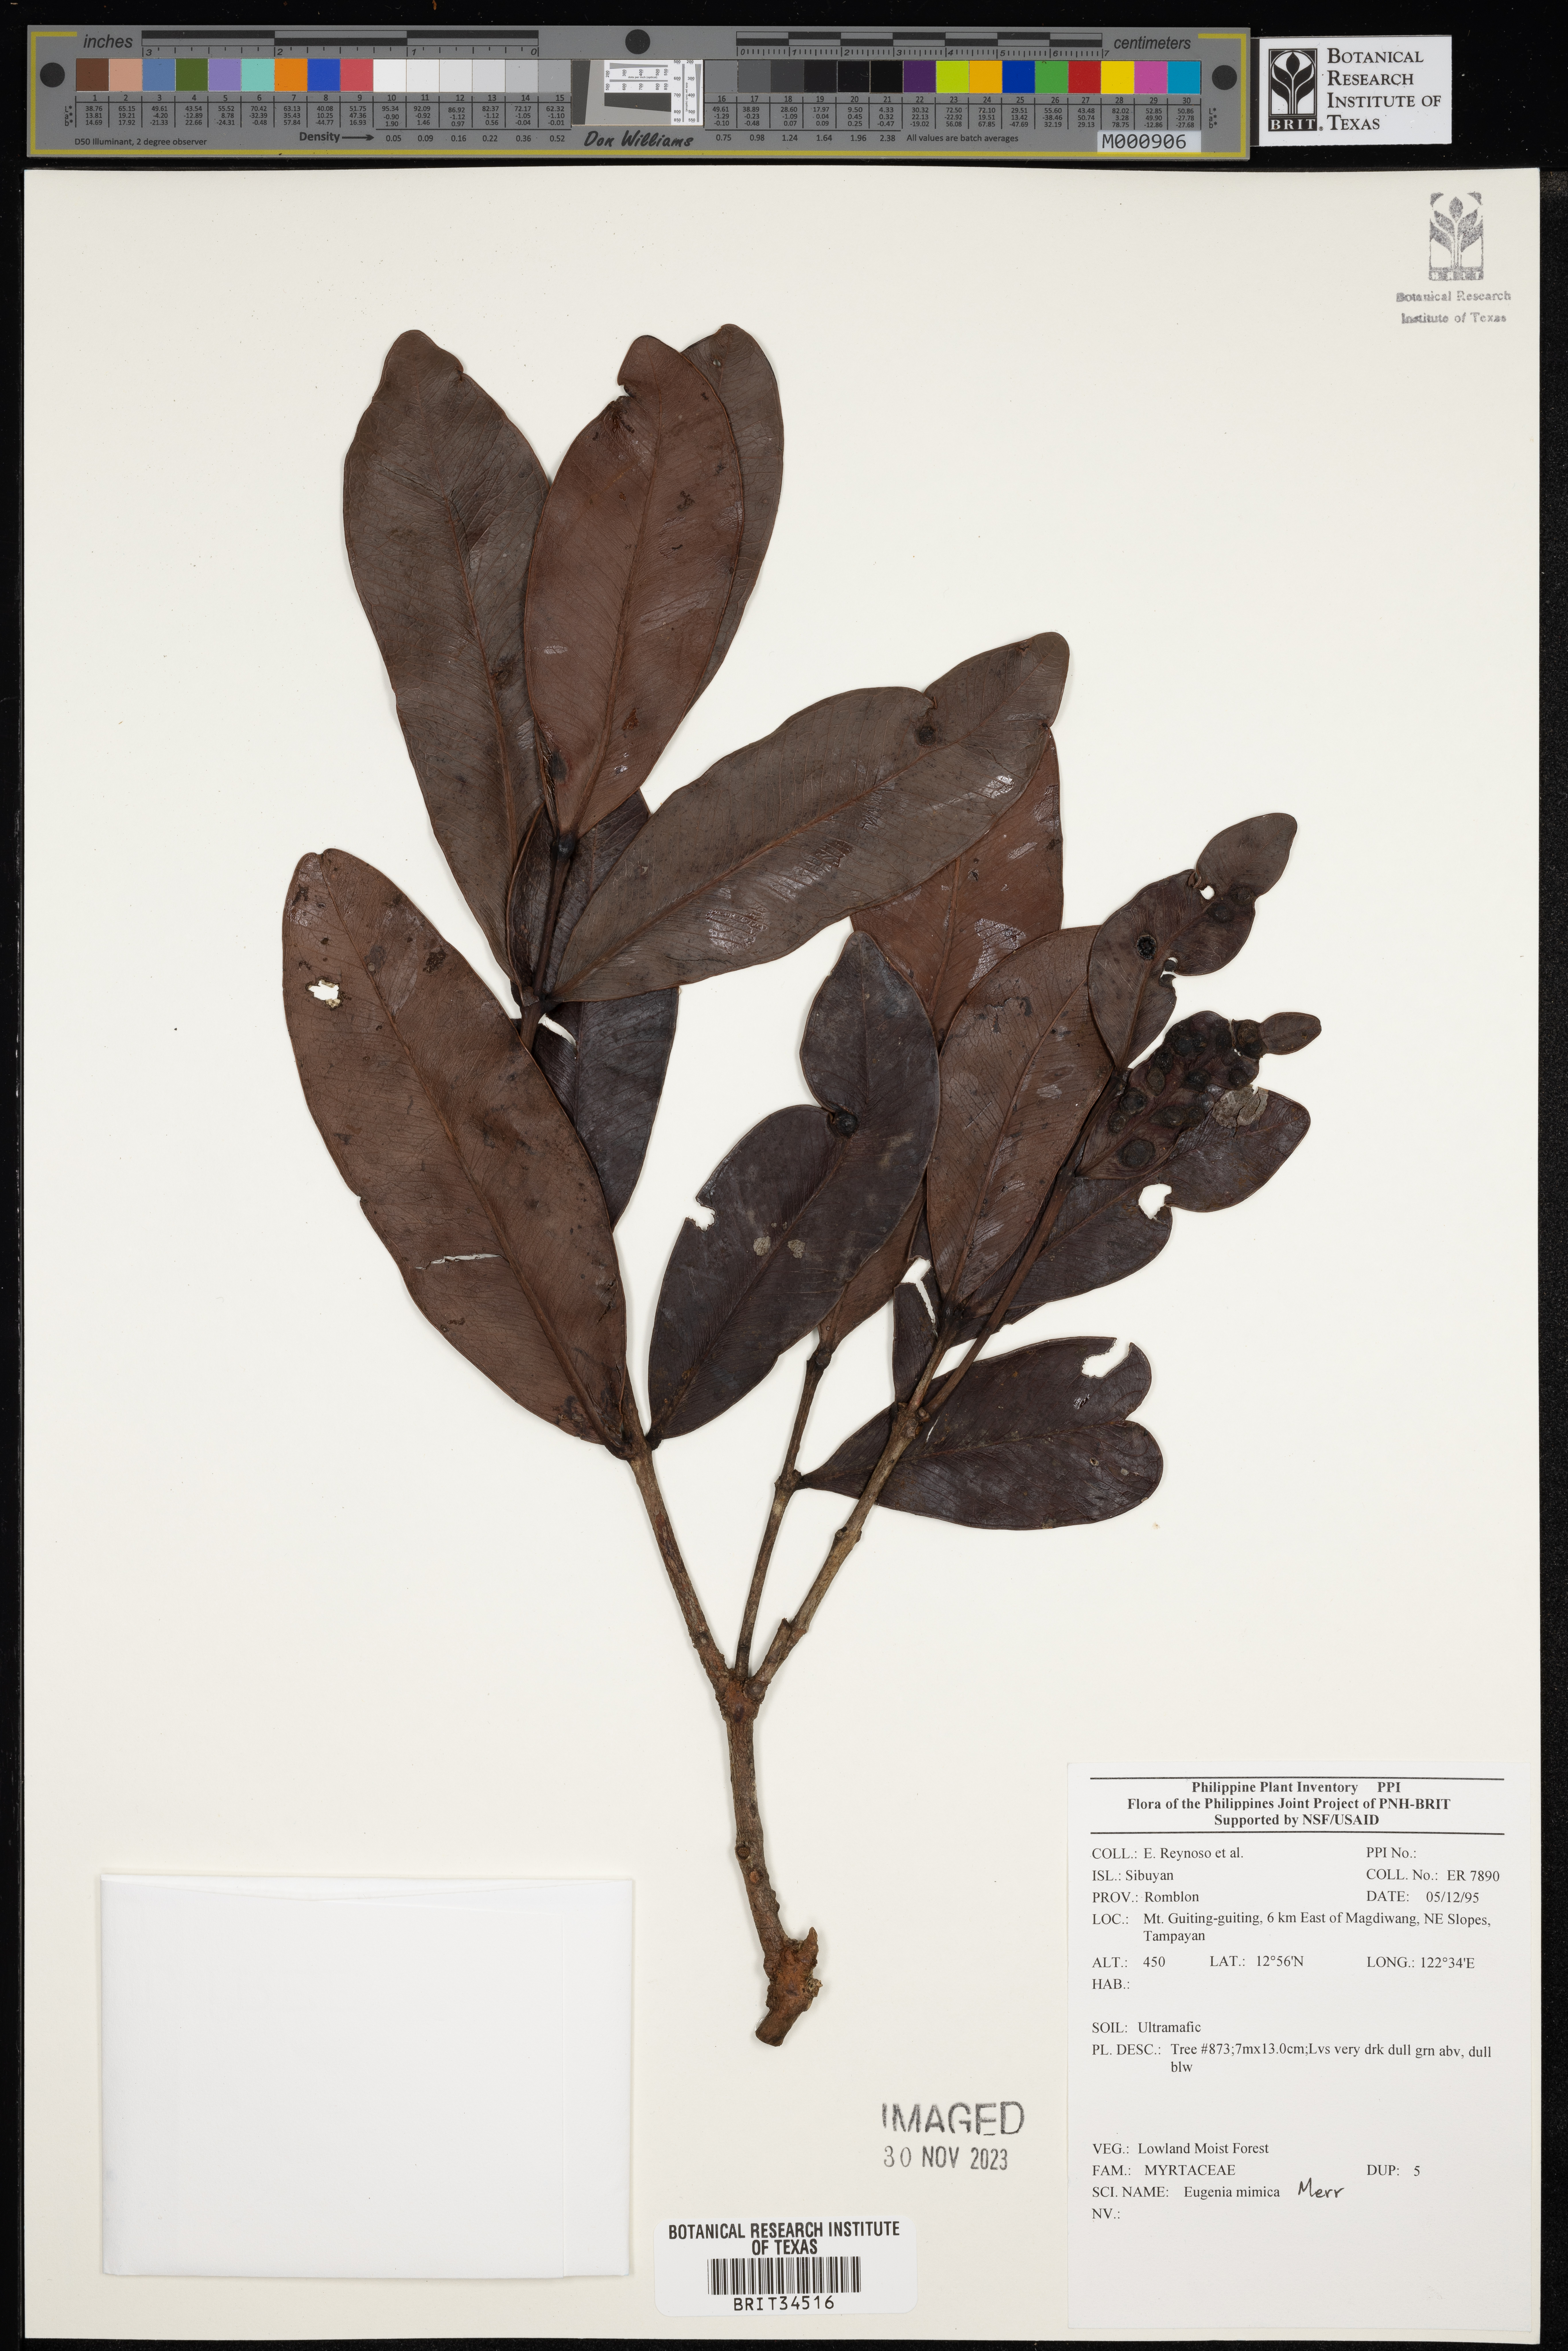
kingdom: Plantae
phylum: Tracheophyta
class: Magnoliopsida
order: Myrtales
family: Myrtaceae
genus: Eugenia
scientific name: Eugenia
